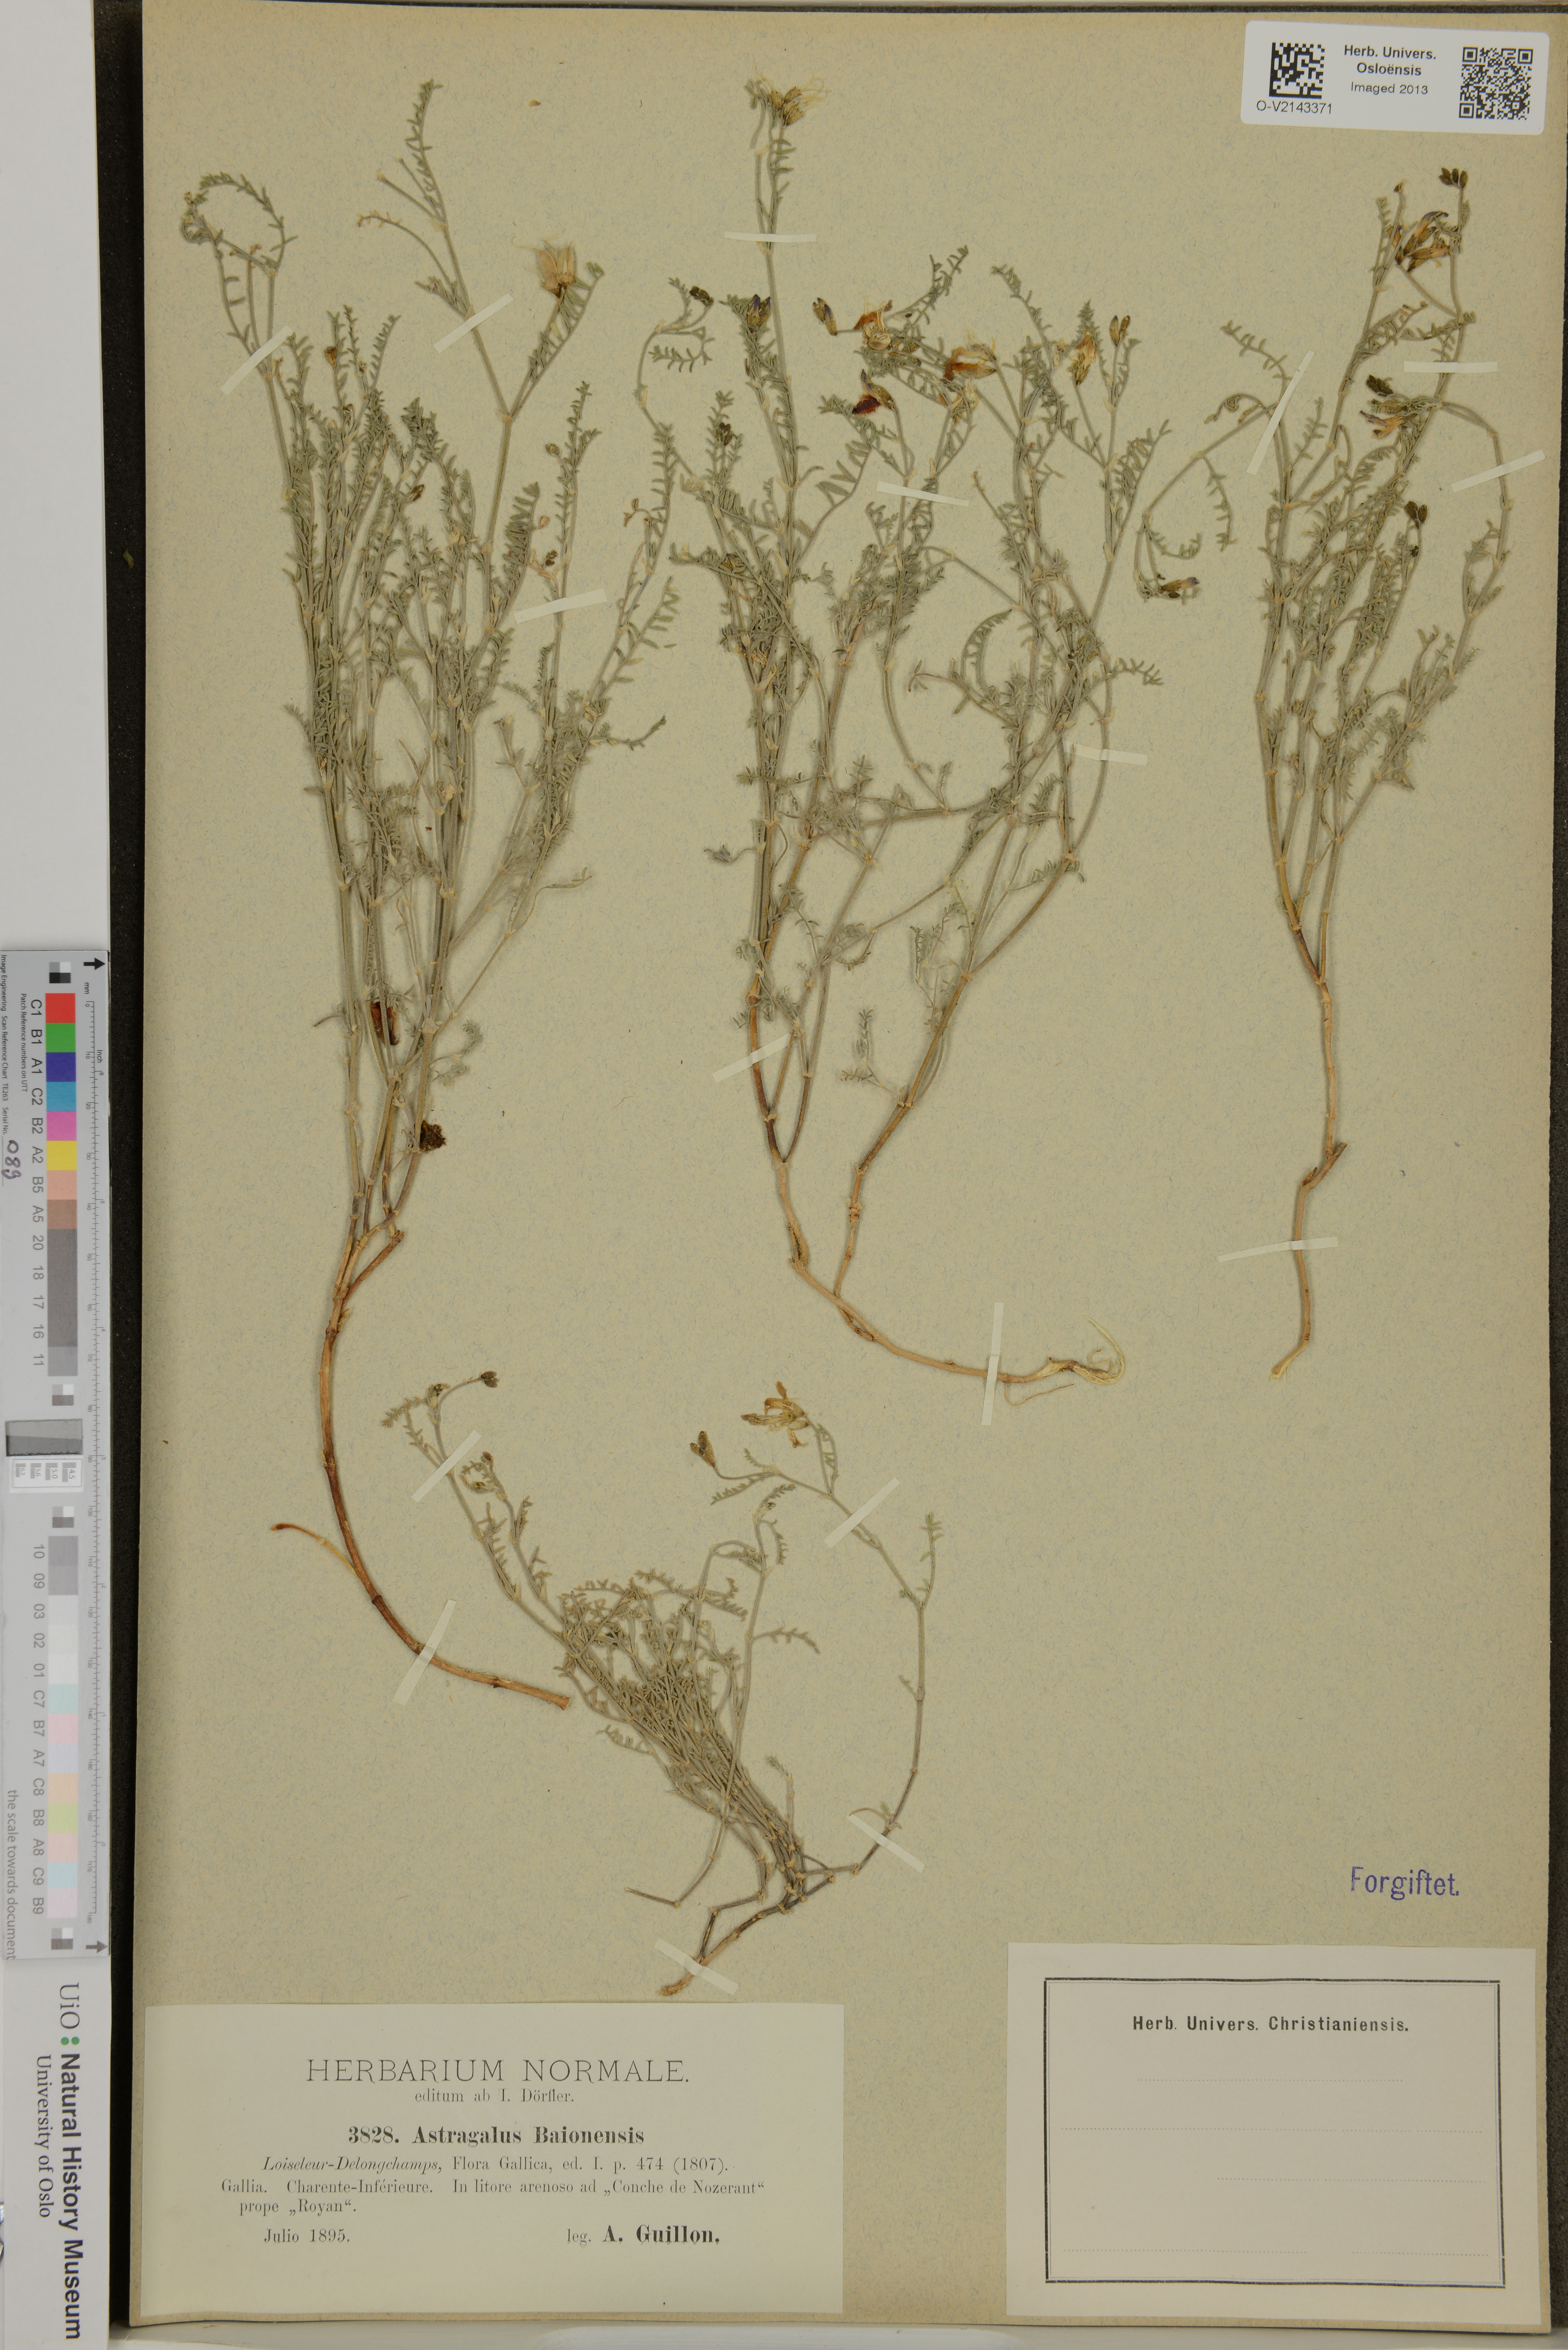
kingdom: Plantae
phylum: Tracheophyta
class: Magnoliopsida
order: Fabales
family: Fabaceae
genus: Astragalus
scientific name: Astragalus baionensis
